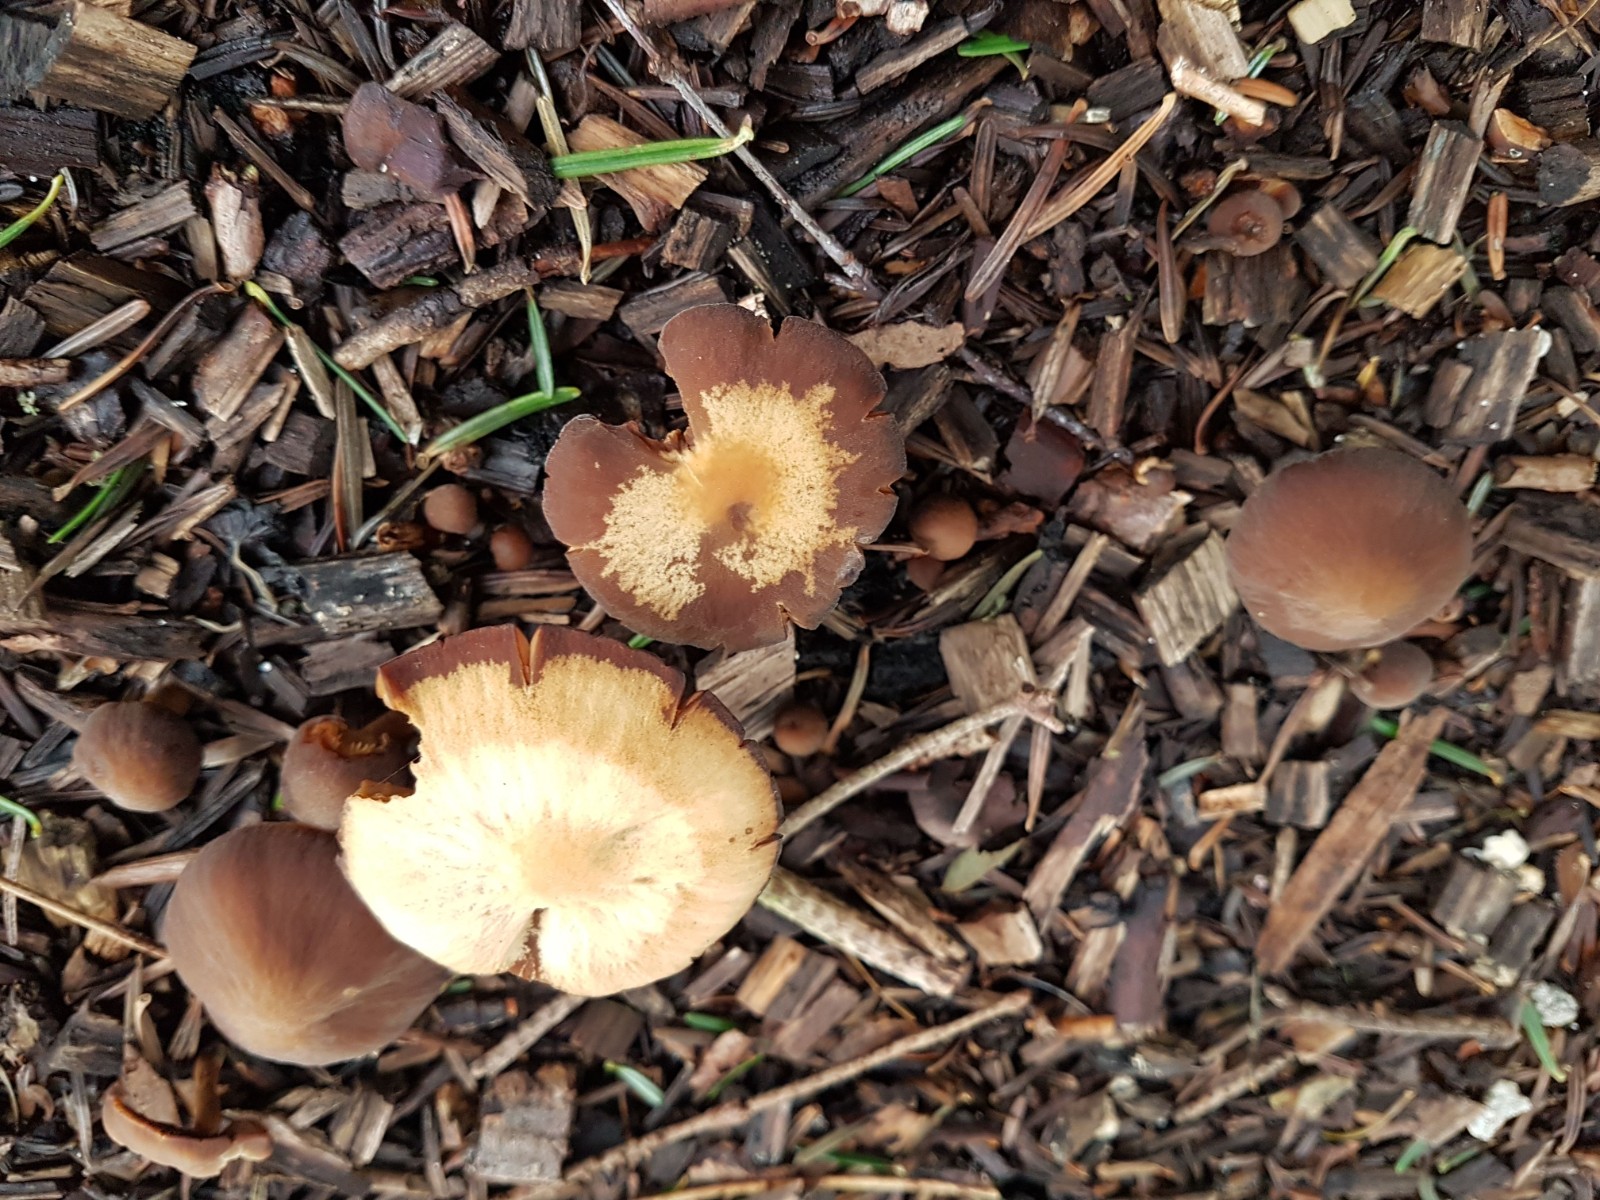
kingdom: Fungi
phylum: Basidiomycota
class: Agaricomycetes
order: Agaricales
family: Psathyrellaceae
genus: Psathyrella
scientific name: Psathyrella
